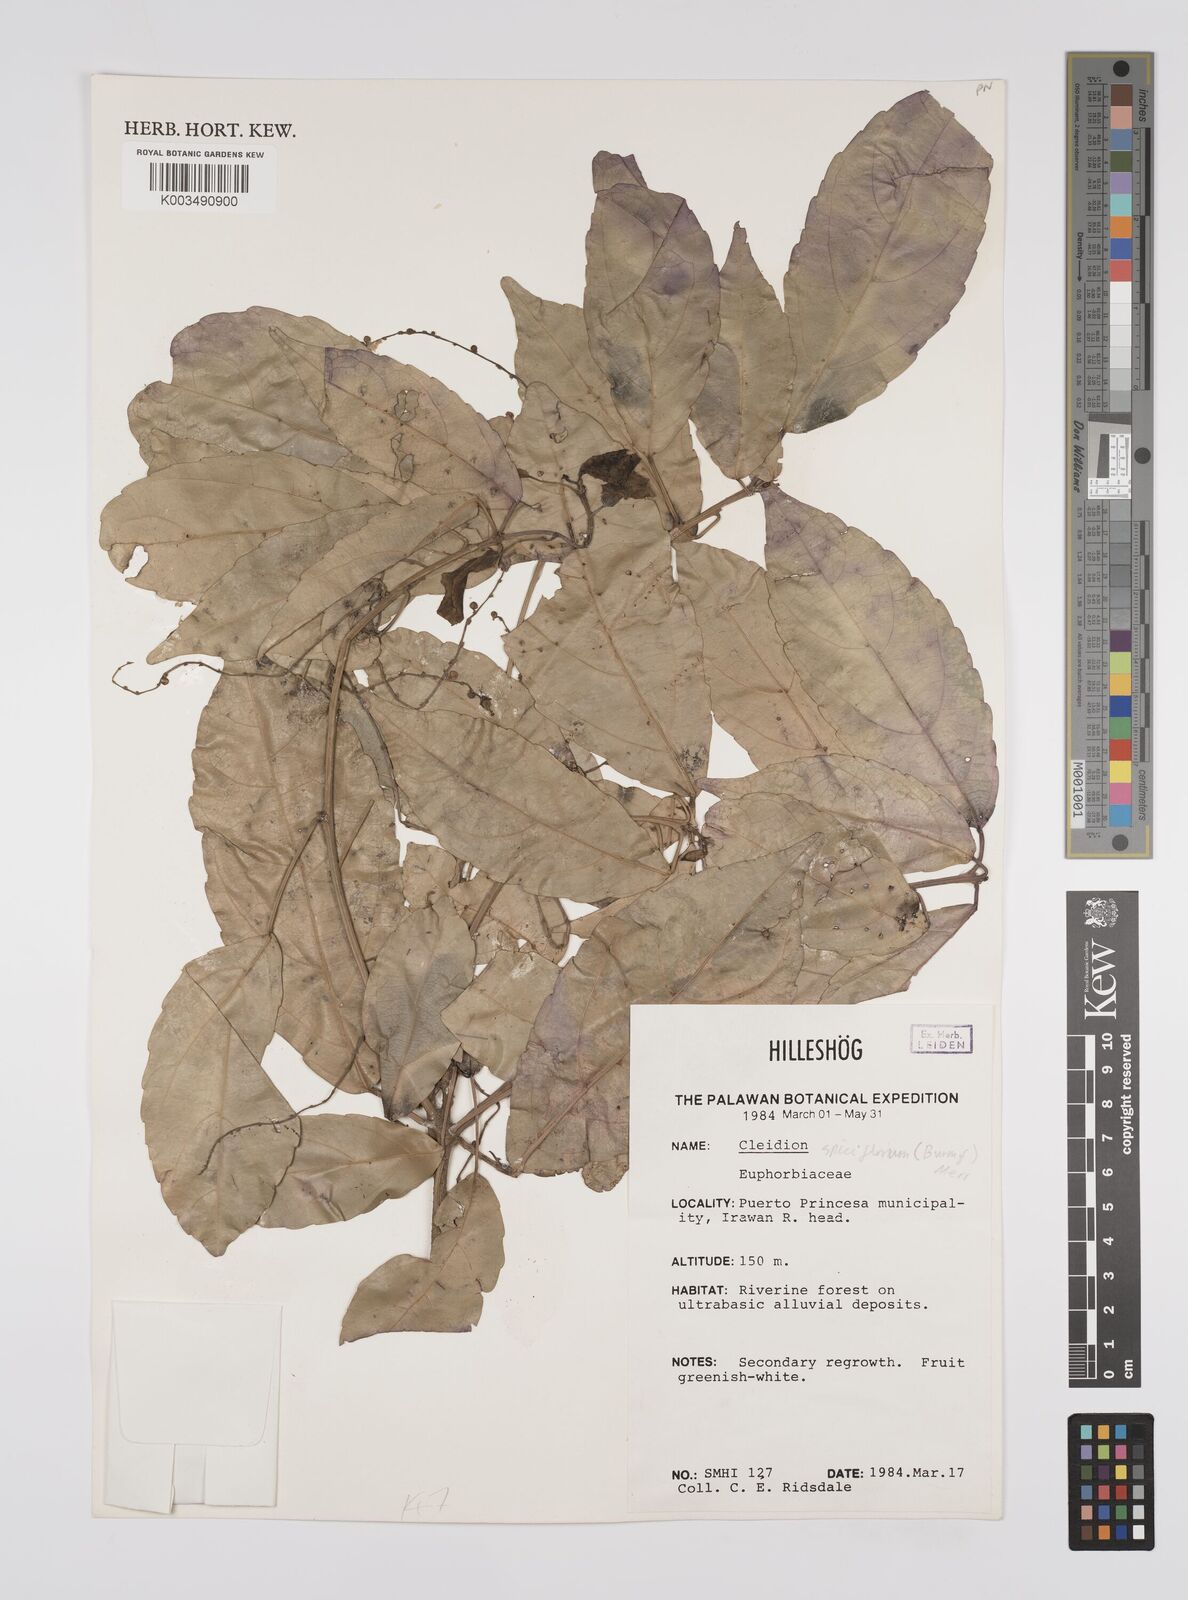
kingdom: Plantae
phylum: Tracheophyta
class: Magnoliopsida
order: Malpighiales
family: Euphorbiaceae
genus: Cleidion
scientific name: Cleidion javanicum
